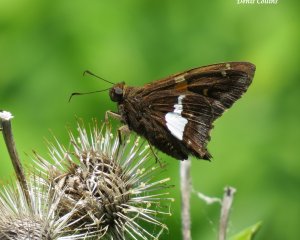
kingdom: Animalia
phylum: Arthropoda
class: Insecta
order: Lepidoptera
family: Hesperiidae
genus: Epargyreus
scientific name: Epargyreus clarus
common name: Silver-spotted Skipper
